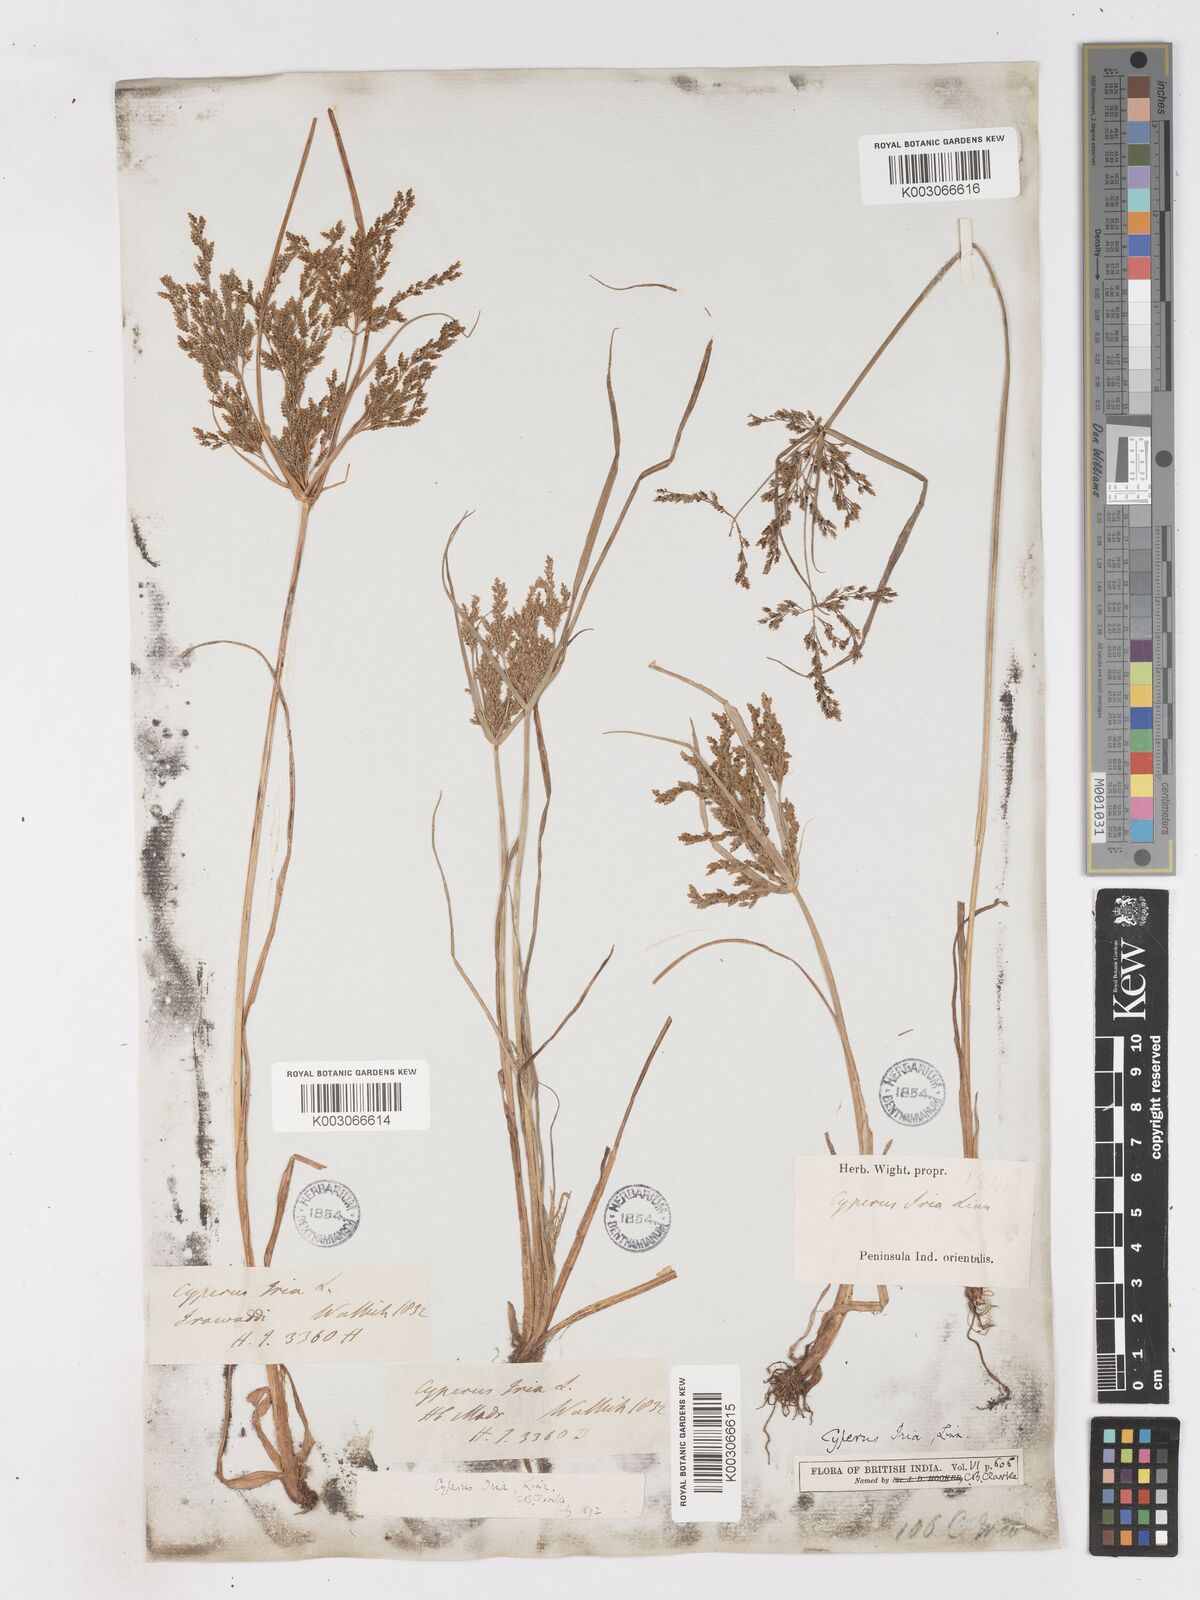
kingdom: Plantae
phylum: Tracheophyta
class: Liliopsida
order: Poales
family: Cyperaceae
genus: Cyperus
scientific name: Cyperus microiria
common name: Asian flatsedge
